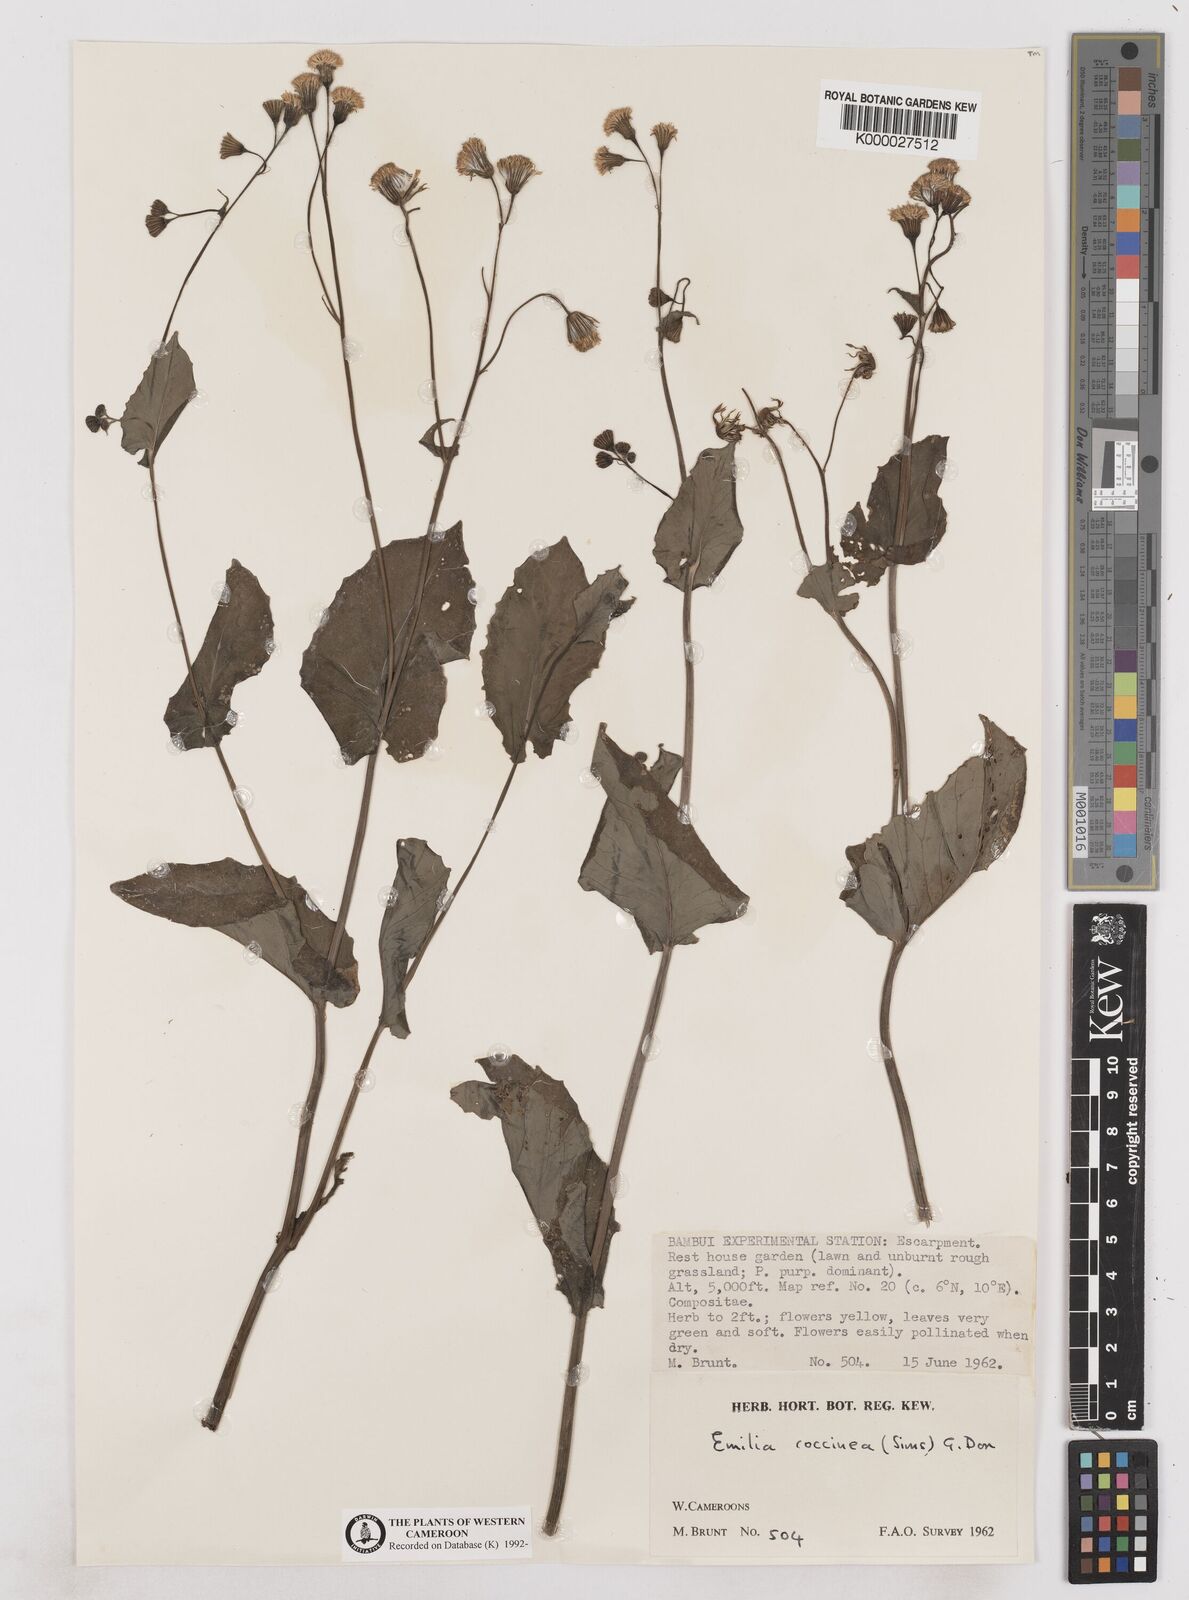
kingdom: Plantae
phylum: Tracheophyta
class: Magnoliopsida
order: Asterales
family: Asteraceae
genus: Emilia
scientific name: Emilia lisowskiana
